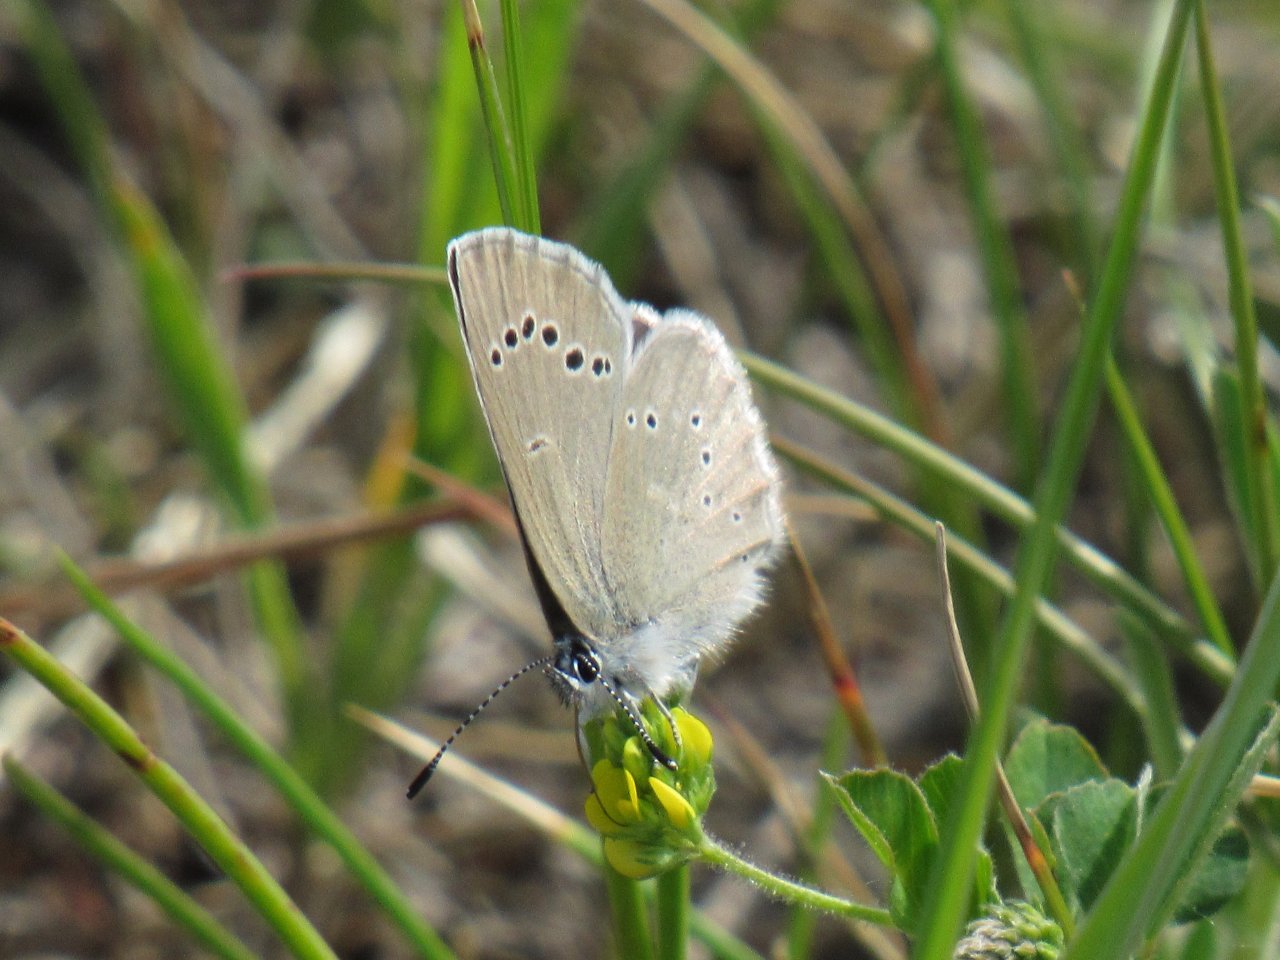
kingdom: Animalia
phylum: Arthropoda
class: Insecta
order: Lepidoptera
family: Lycaenidae
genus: Glaucopsyche
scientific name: Glaucopsyche lygdamus
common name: Silvery Blue
